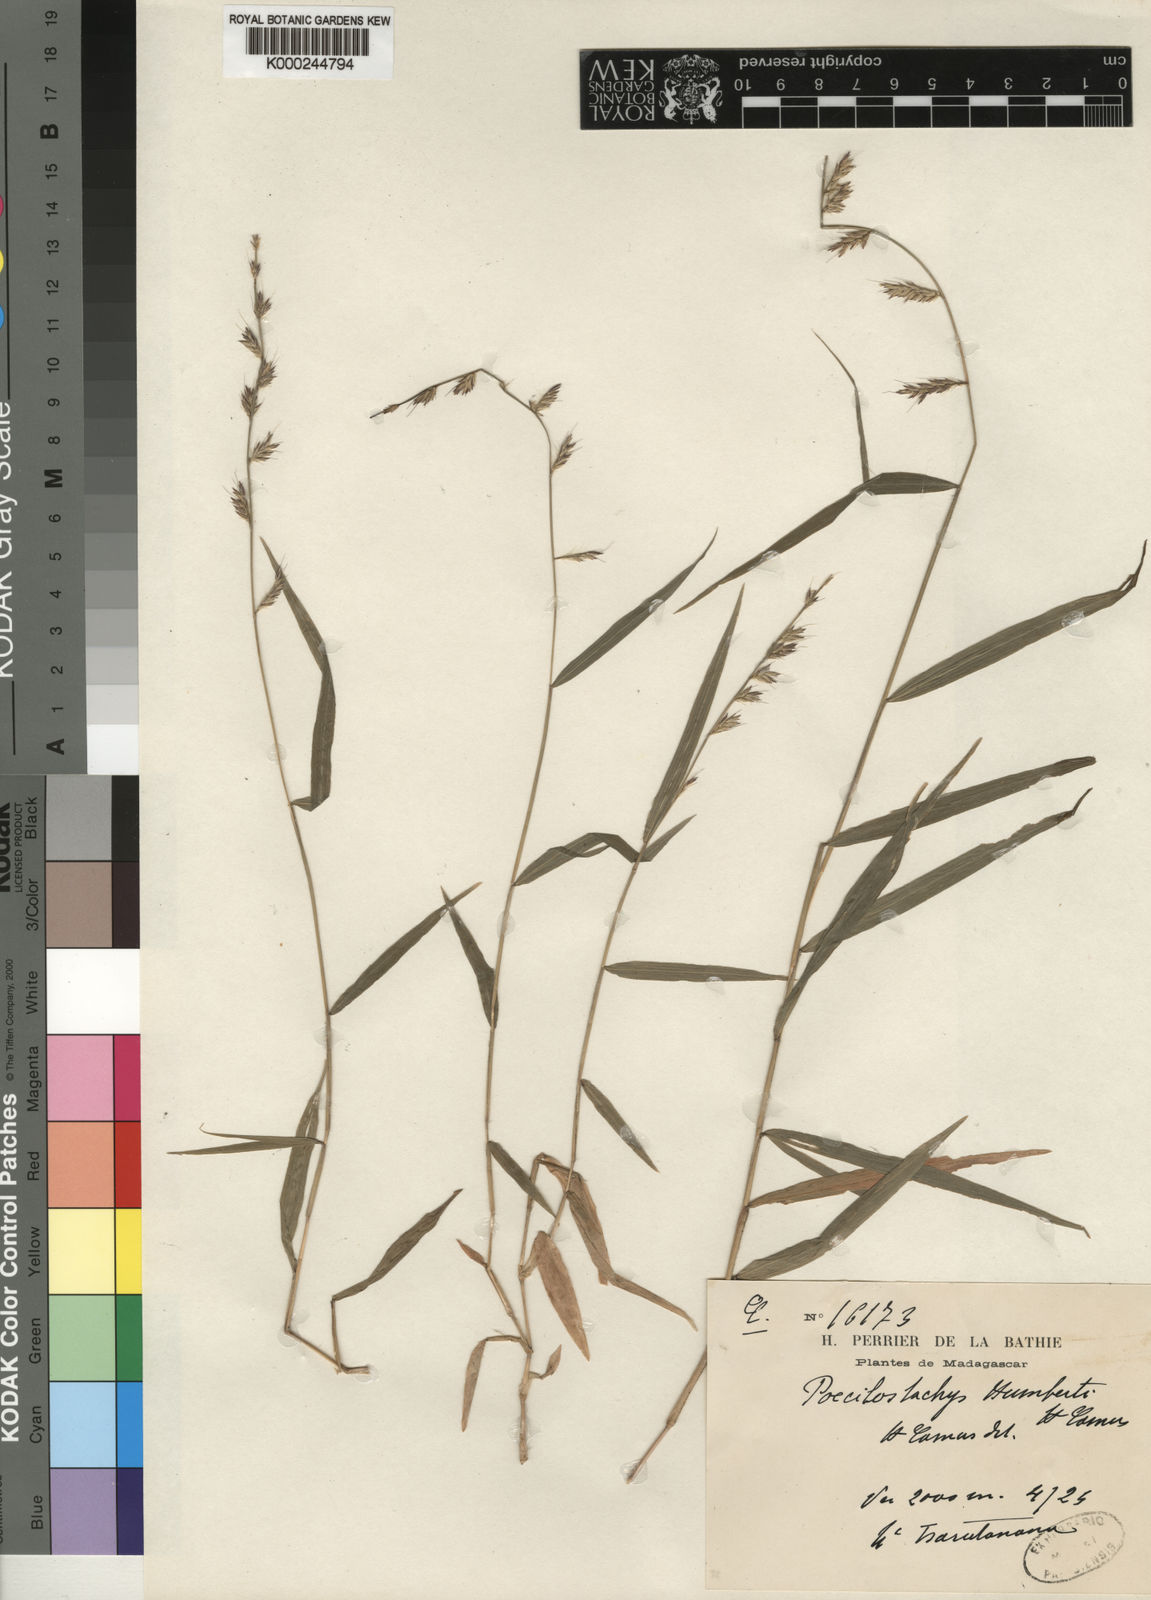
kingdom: Plantae
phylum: Tracheophyta
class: Liliopsida
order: Poales
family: Poaceae
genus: Poecilostachys
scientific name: Poecilostachys humbertii
